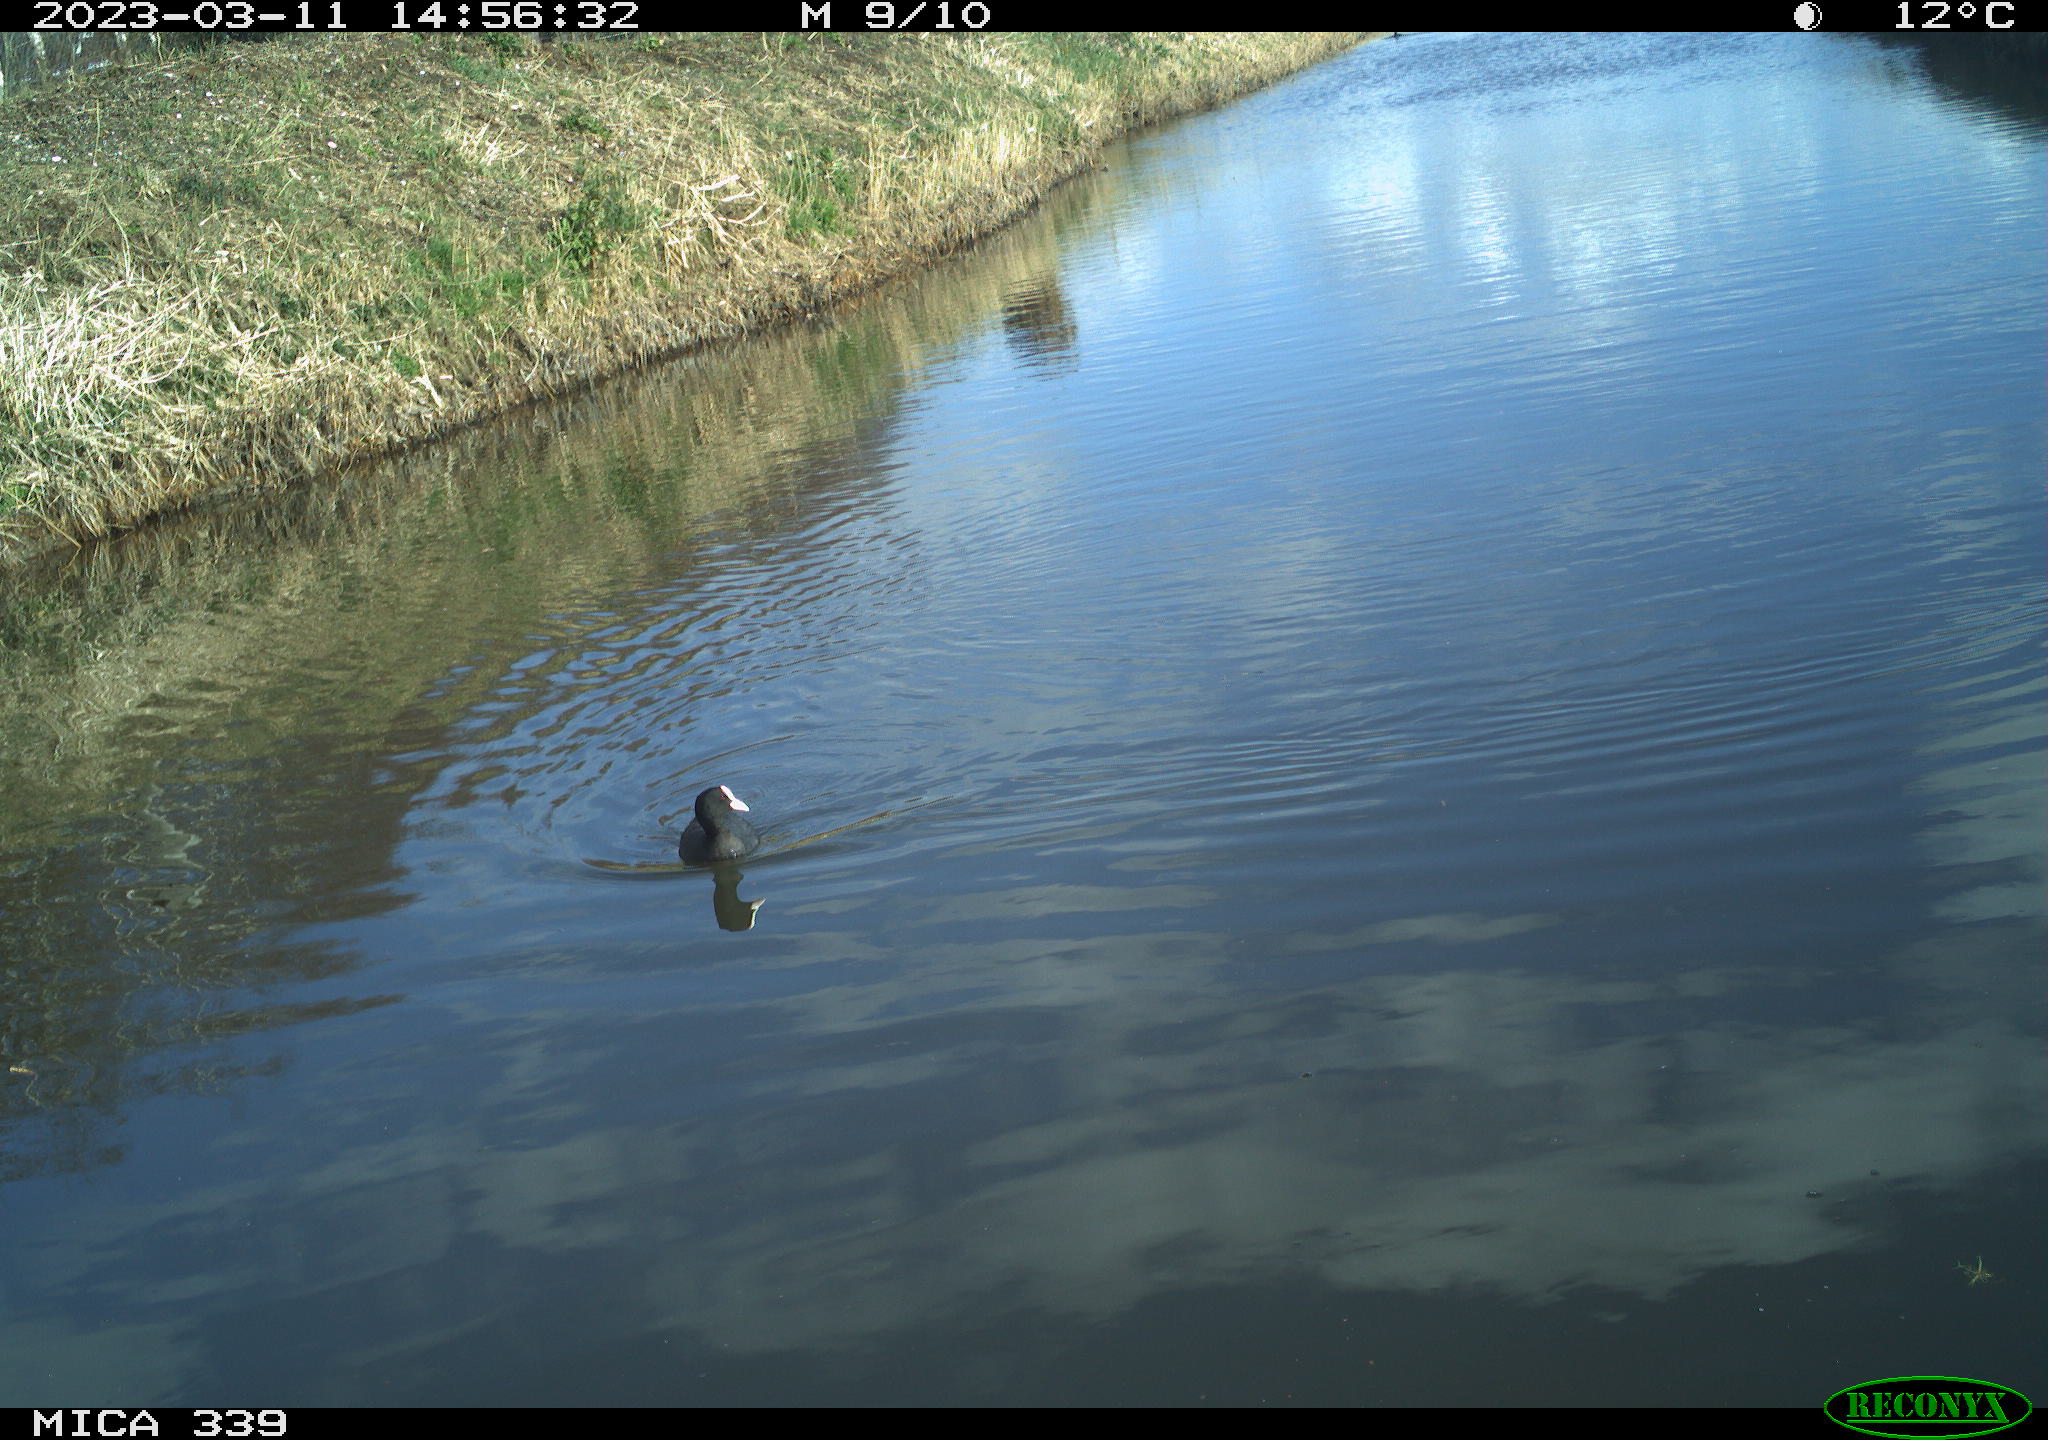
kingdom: Animalia
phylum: Chordata
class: Aves
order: Gruiformes
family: Rallidae
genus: Fulica
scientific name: Fulica atra
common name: Eurasian coot
